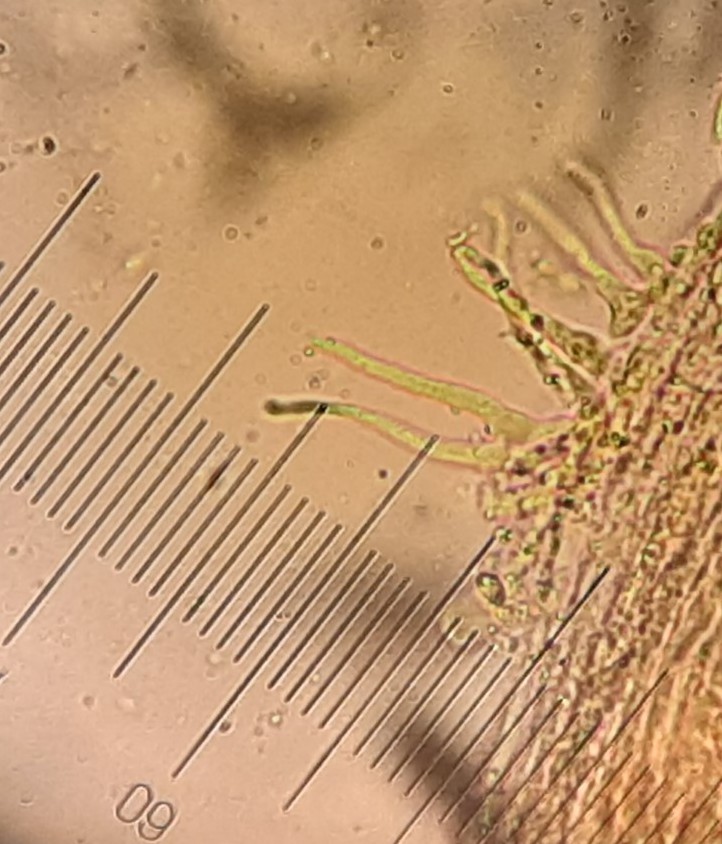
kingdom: Fungi
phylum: Basidiomycota
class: Agaricomycetes
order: Agaricales
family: Mycenaceae
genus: Hemimycena
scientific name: Hemimycena
